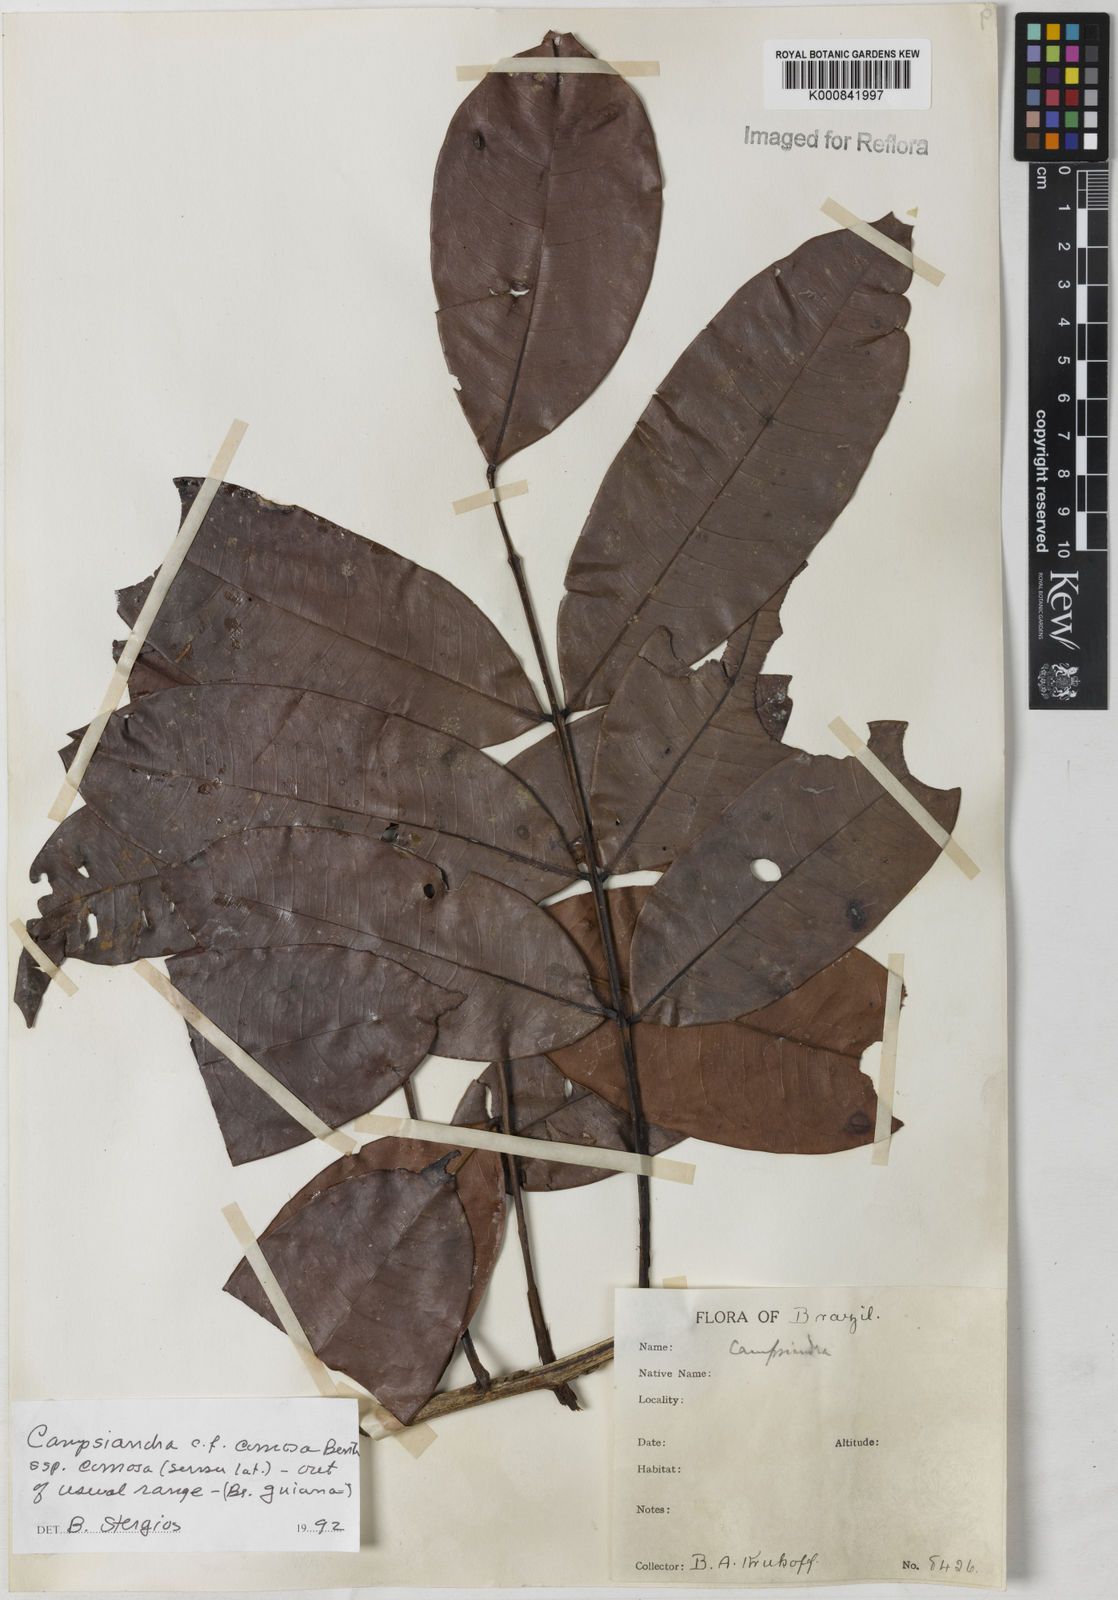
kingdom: Plantae
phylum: Tracheophyta
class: Magnoliopsida
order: Fabales
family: Fabaceae
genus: Campsiandra
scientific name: Campsiandra comosa
